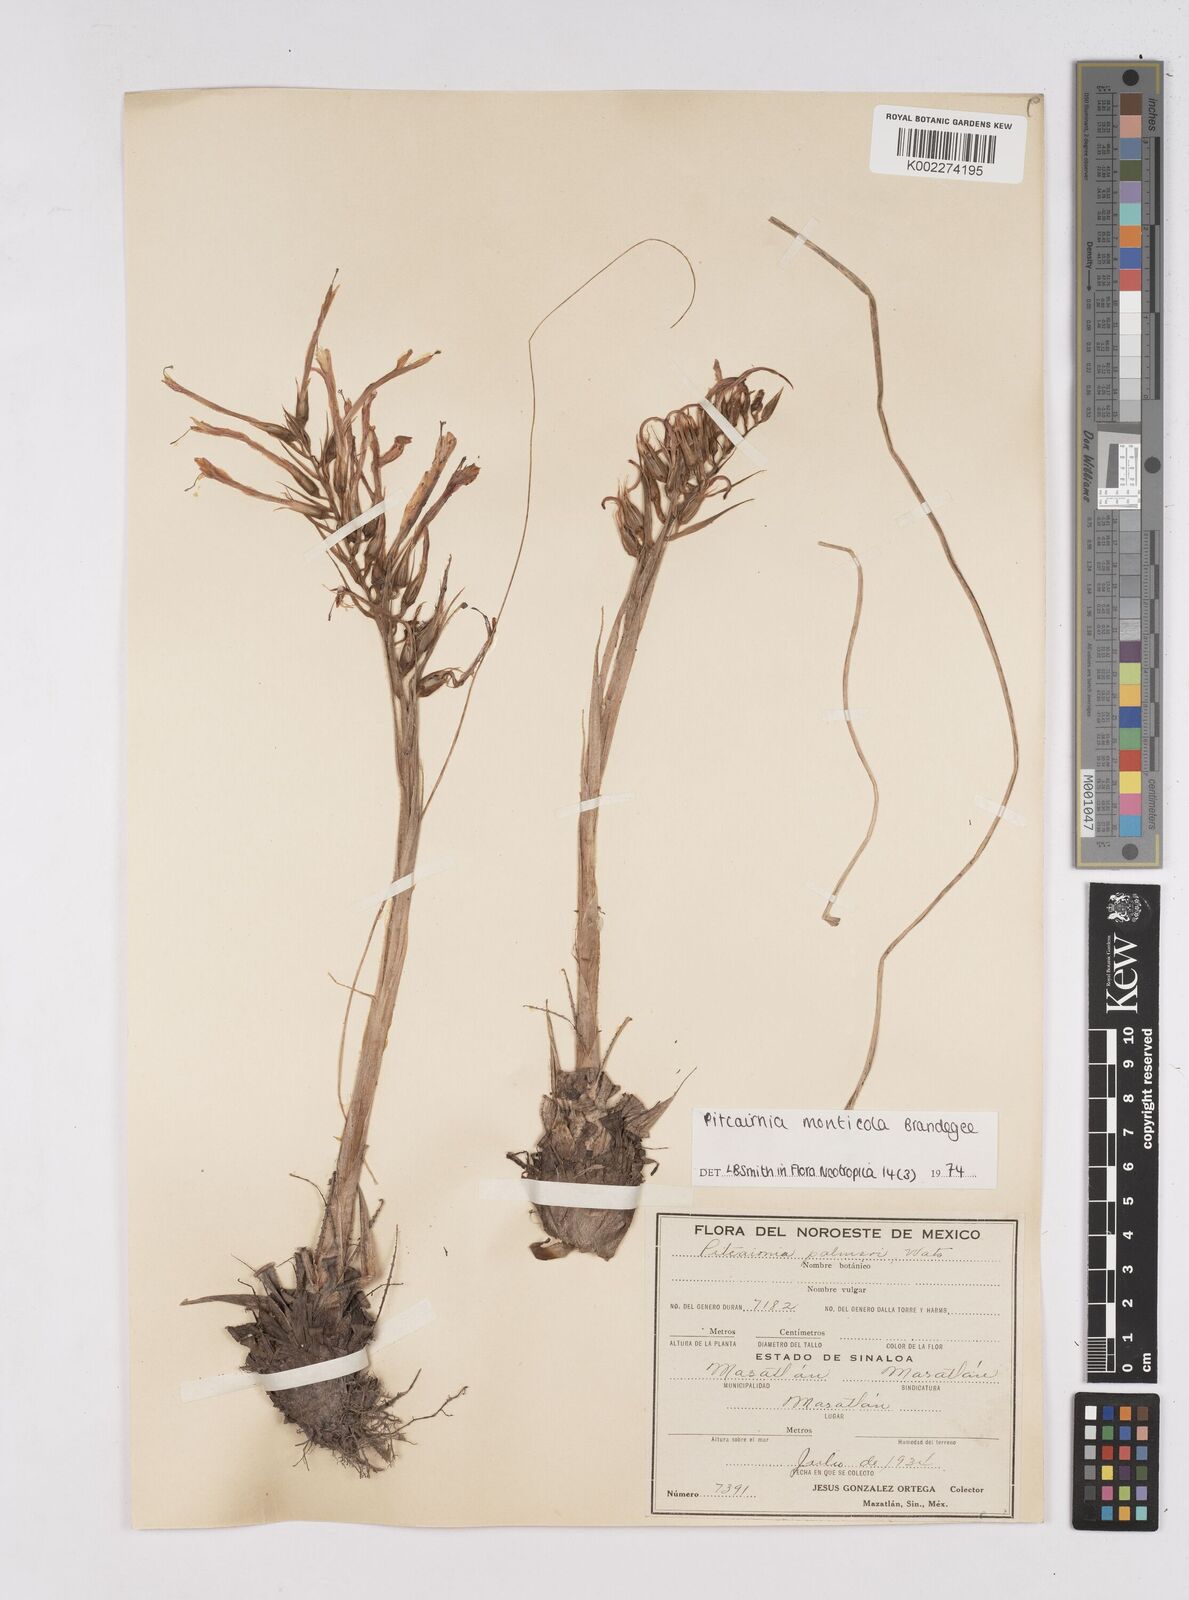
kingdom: Plantae
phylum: Tracheophyta
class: Liliopsida
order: Poales
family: Bromeliaceae
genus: Pitcairnia
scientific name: Pitcairnia monticola
